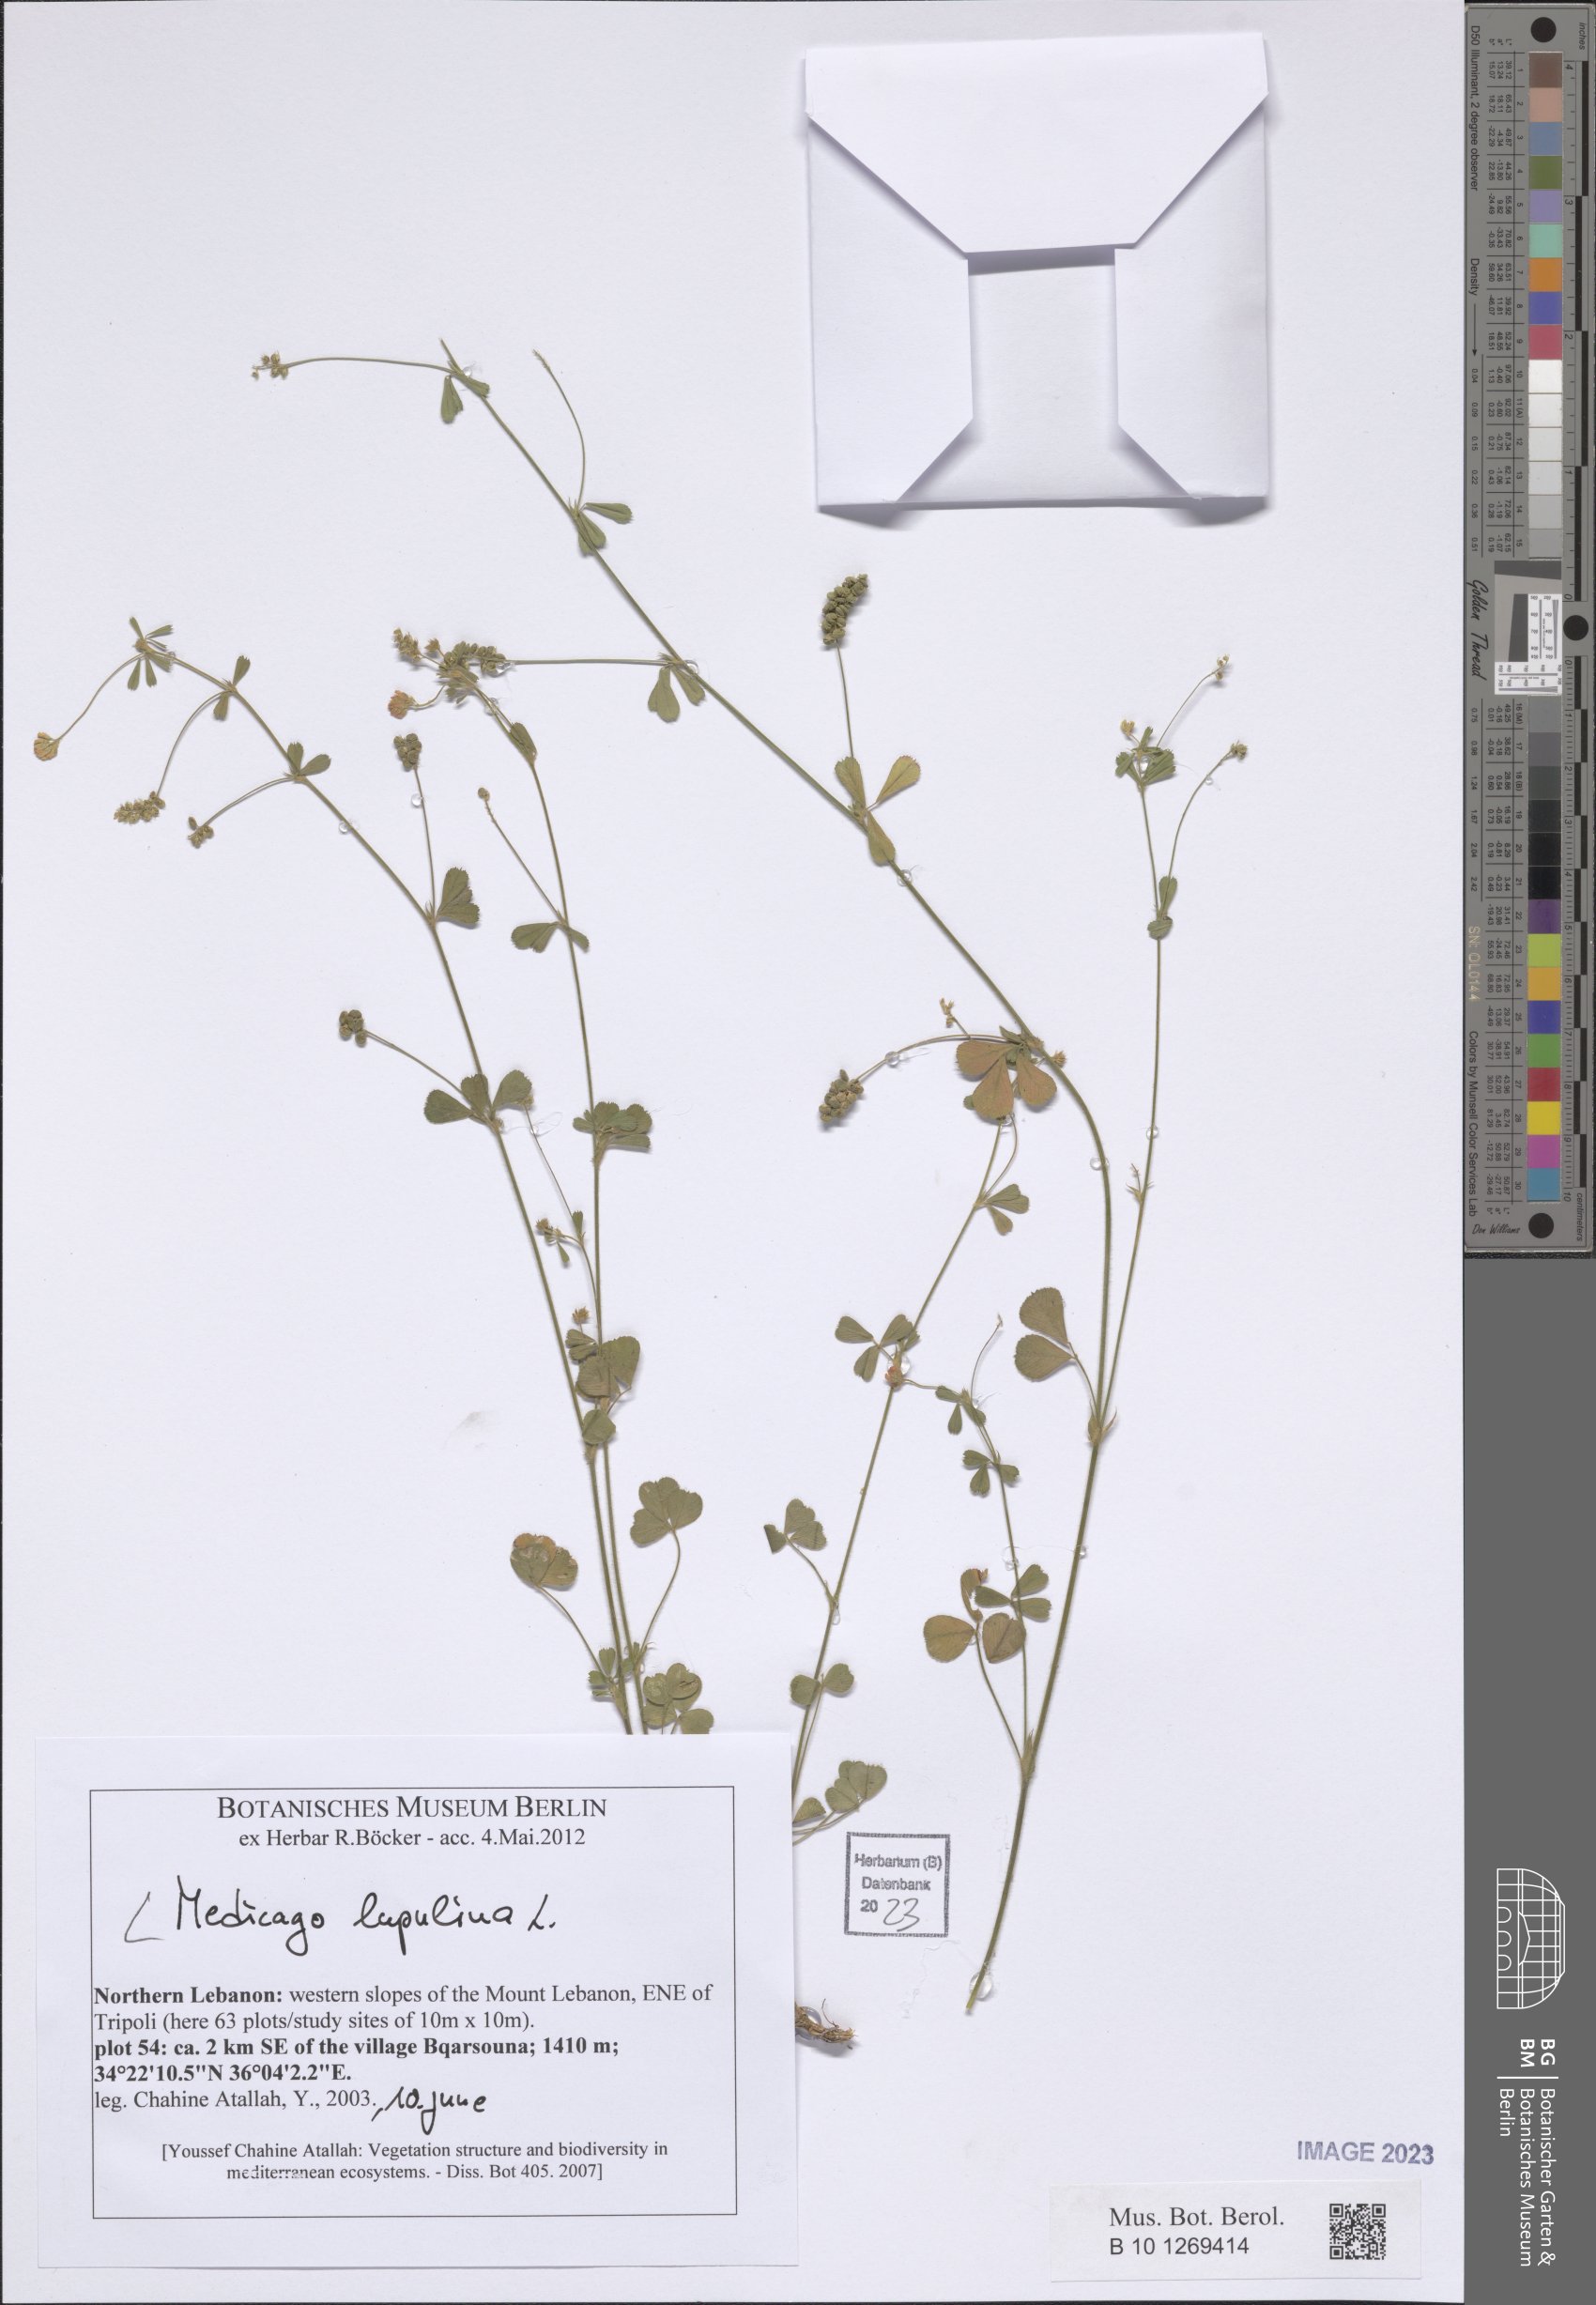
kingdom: Plantae
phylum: Tracheophyta
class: Magnoliopsida
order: Fabales
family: Fabaceae
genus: Medicago
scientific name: Medicago lupulina
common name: Black medick
